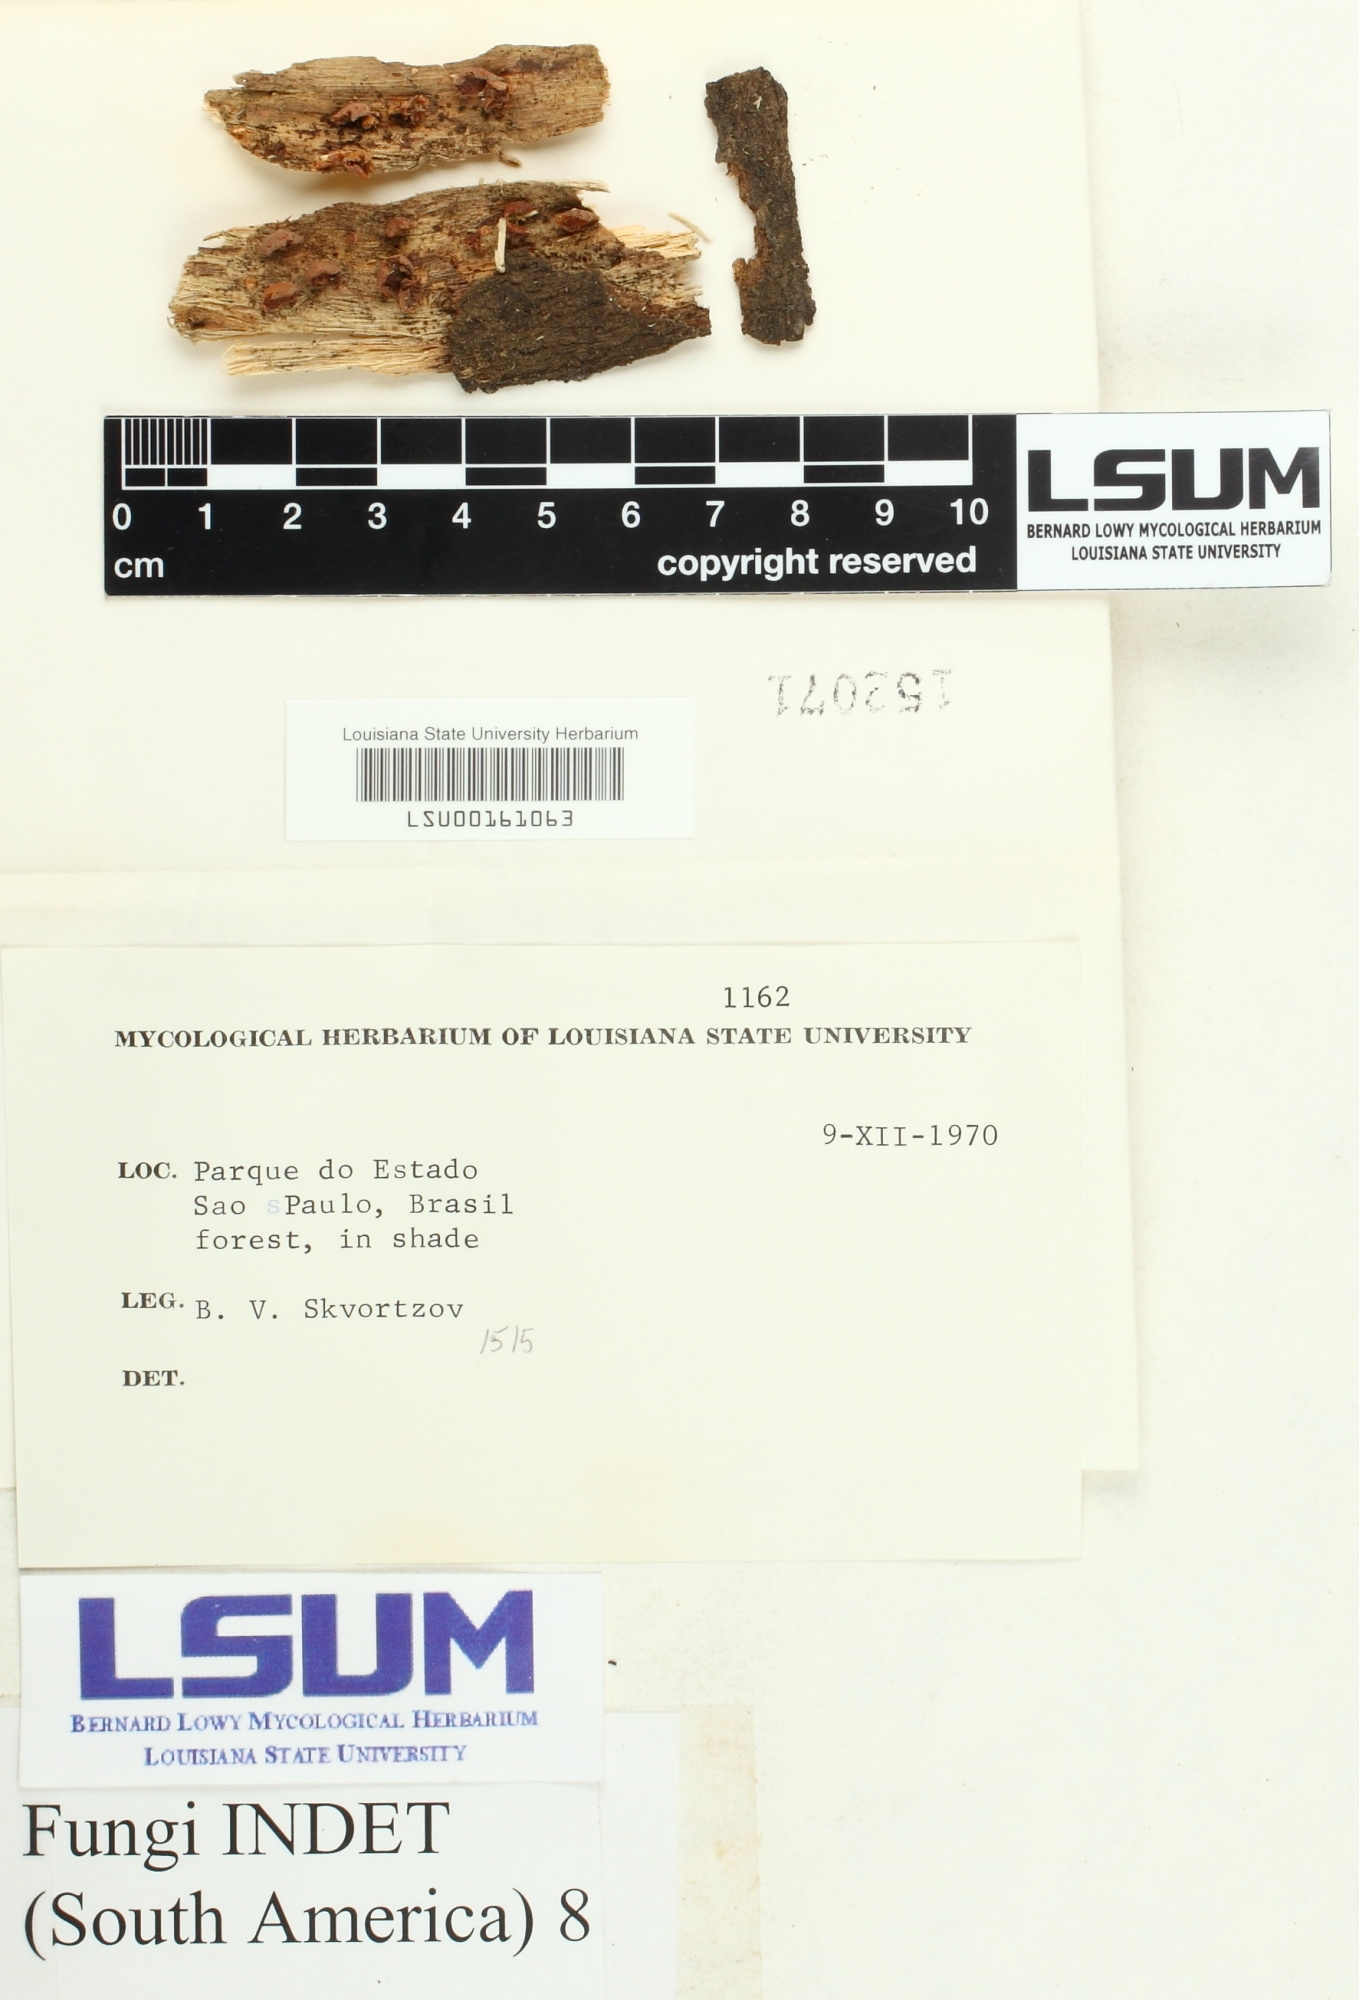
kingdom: Fungi
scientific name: Fungi
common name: Fungi
